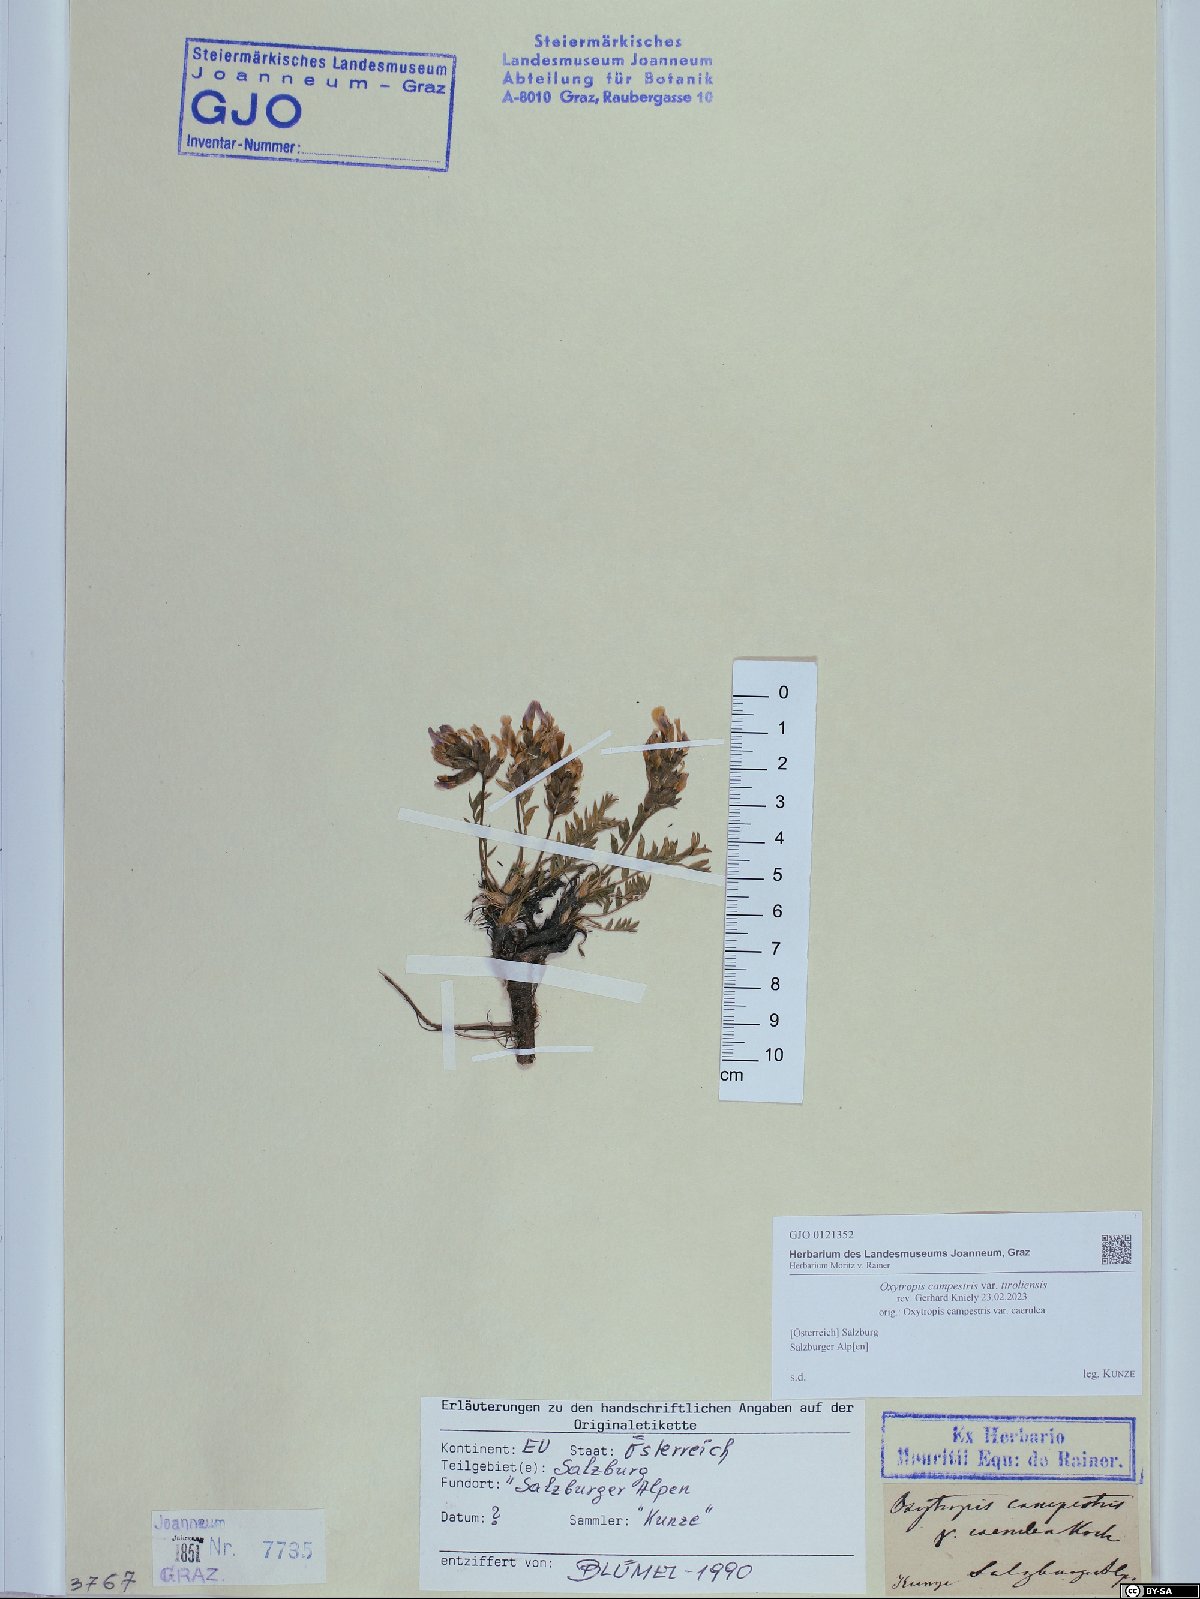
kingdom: Plantae
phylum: Tracheophyta
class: Magnoliopsida
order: Fabales
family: Fabaceae
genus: Oxytropis
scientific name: Oxytropis campestris
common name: Field locoweed
